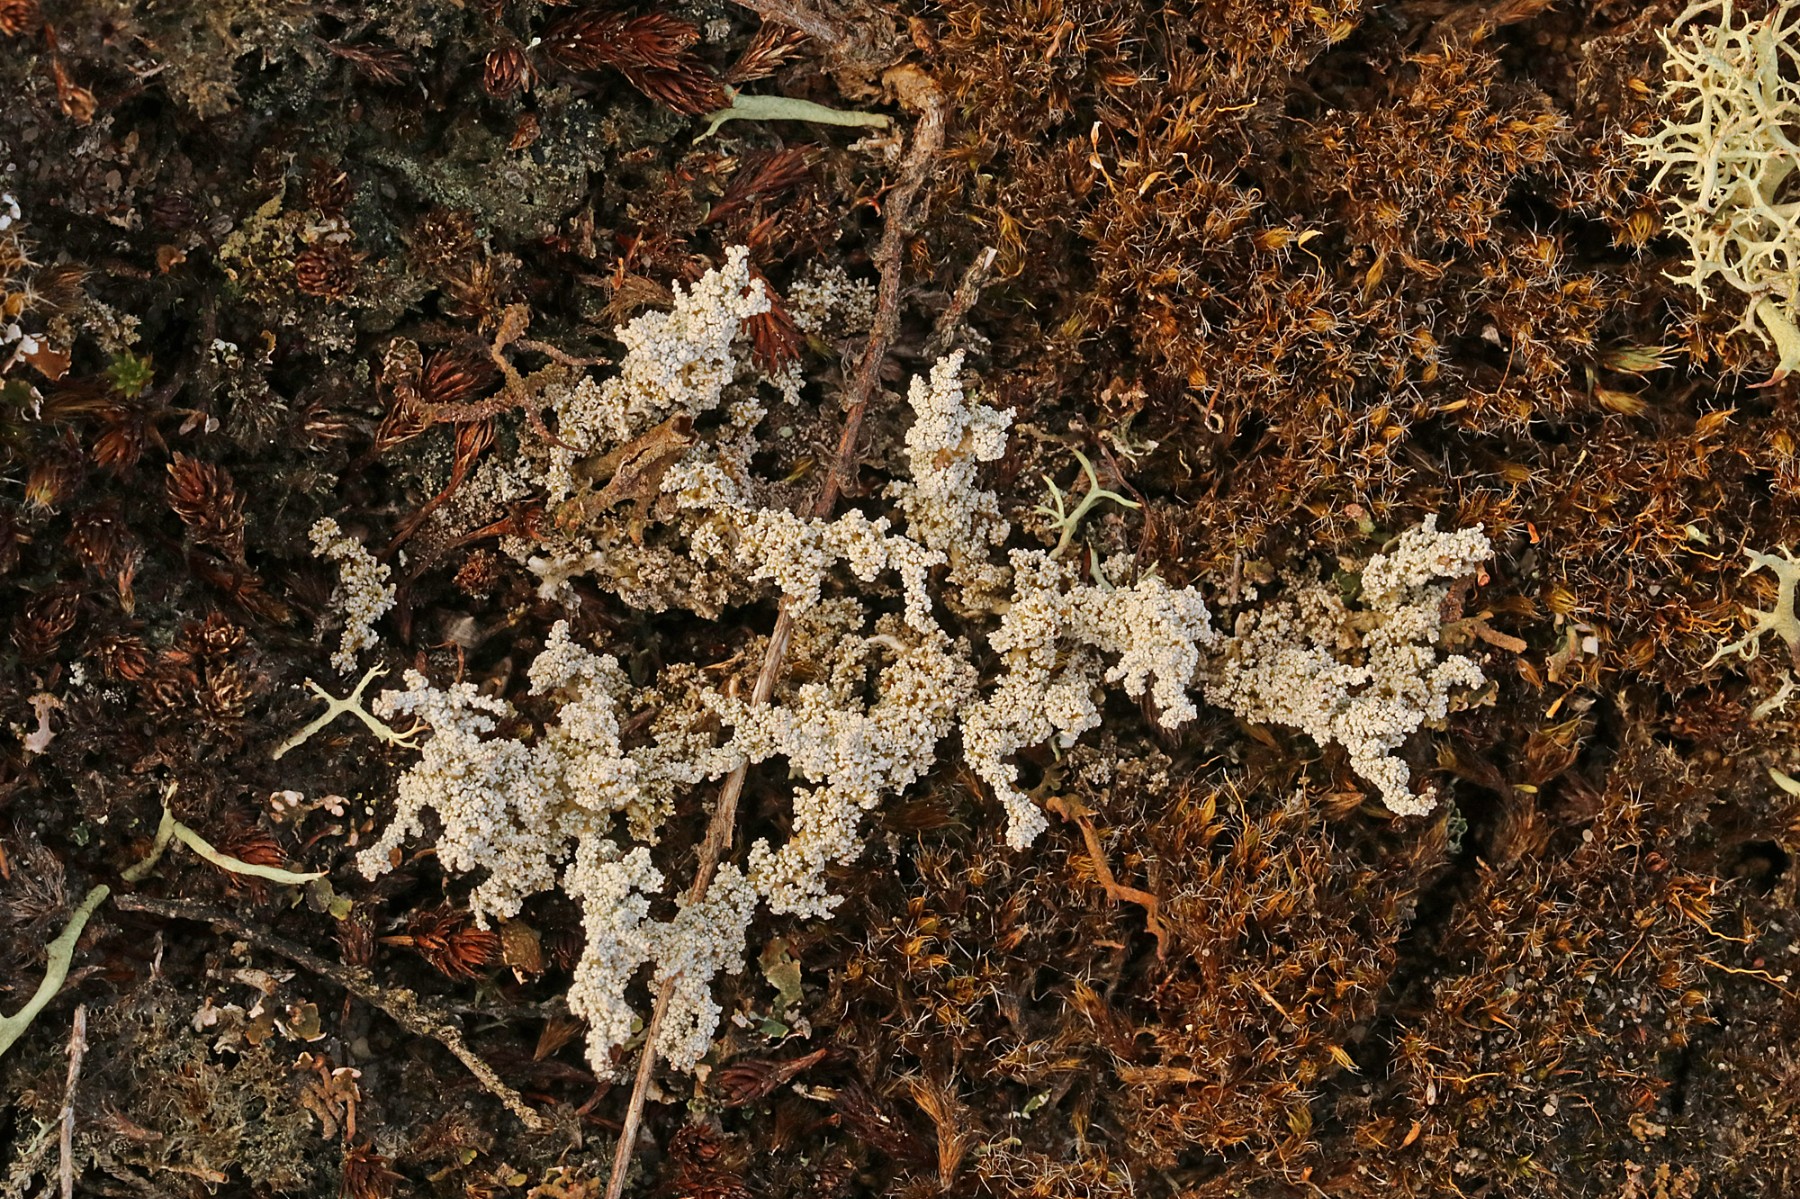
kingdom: Fungi
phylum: Ascomycota
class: Lecanoromycetes
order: Lecanorales
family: Stereocaulaceae
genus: Stereocaulon
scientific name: Stereocaulon saxatile
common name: klit-korallav
